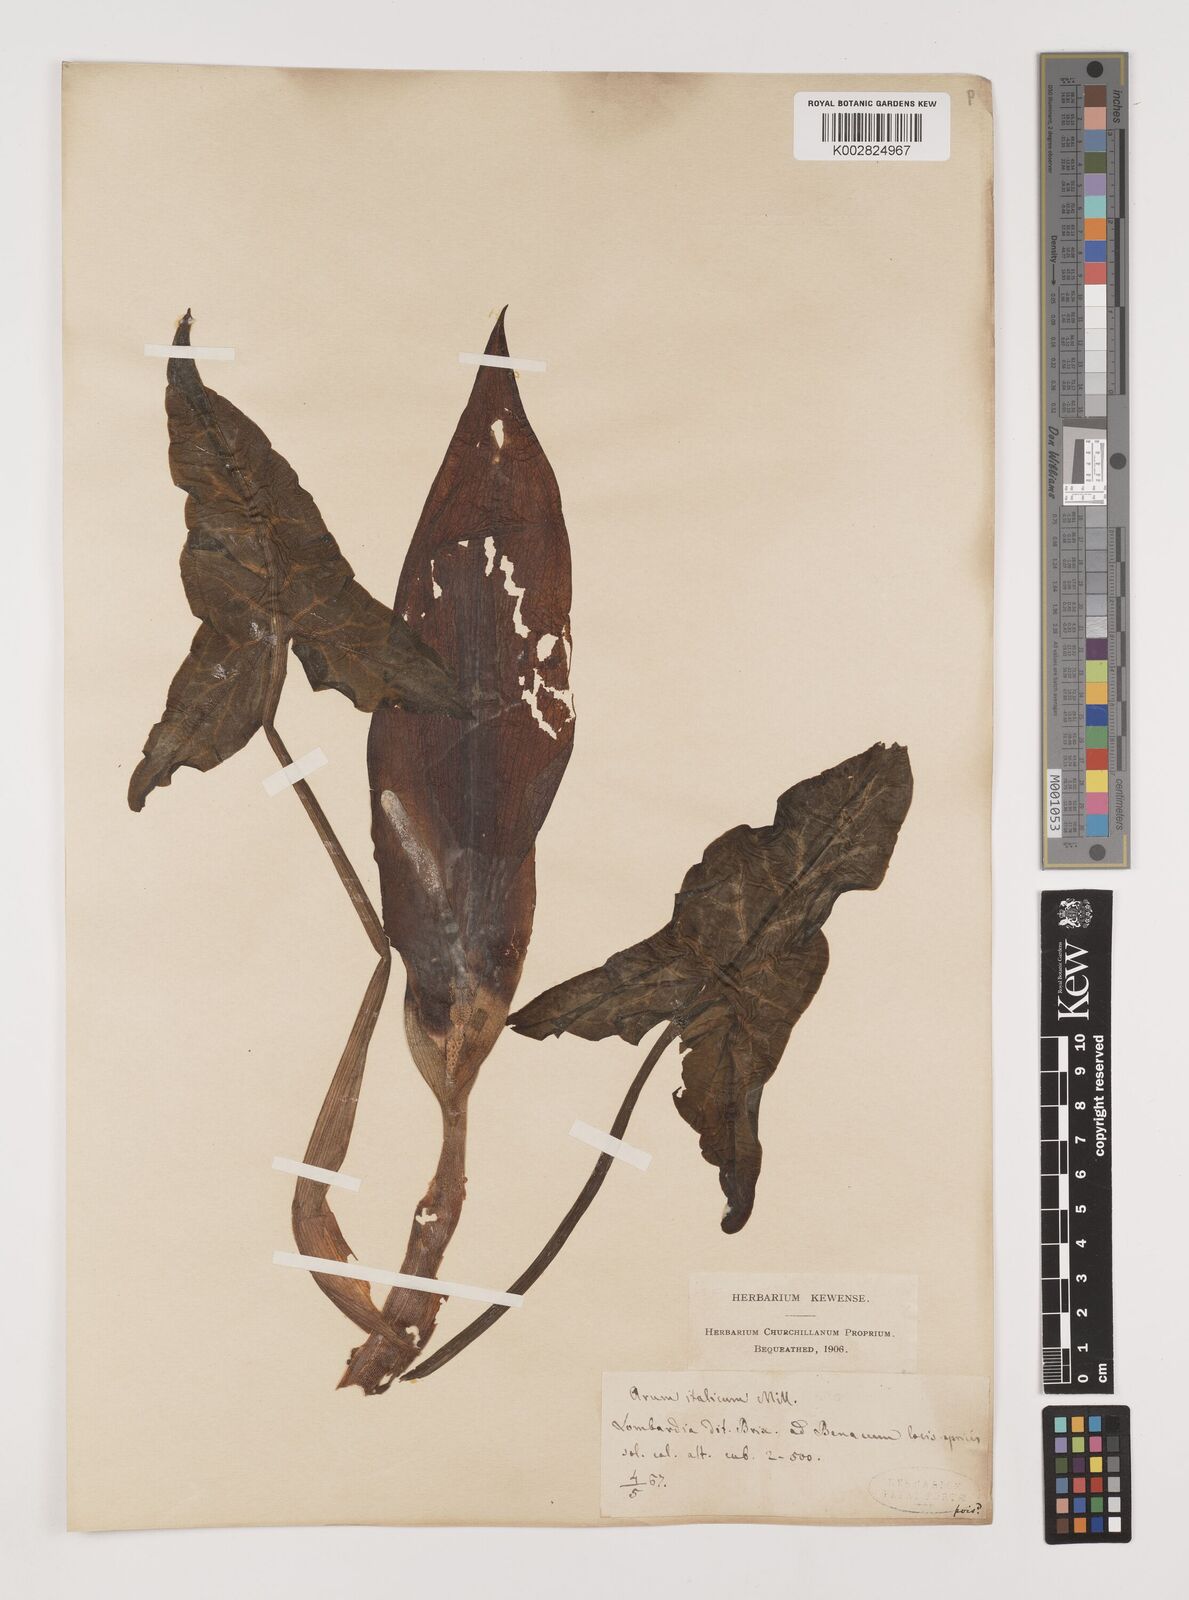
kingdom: Plantae
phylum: Tracheophyta
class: Liliopsida
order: Alismatales
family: Araceae
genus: Arum
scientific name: Arum italicum
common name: Italian lords-and-ladies
